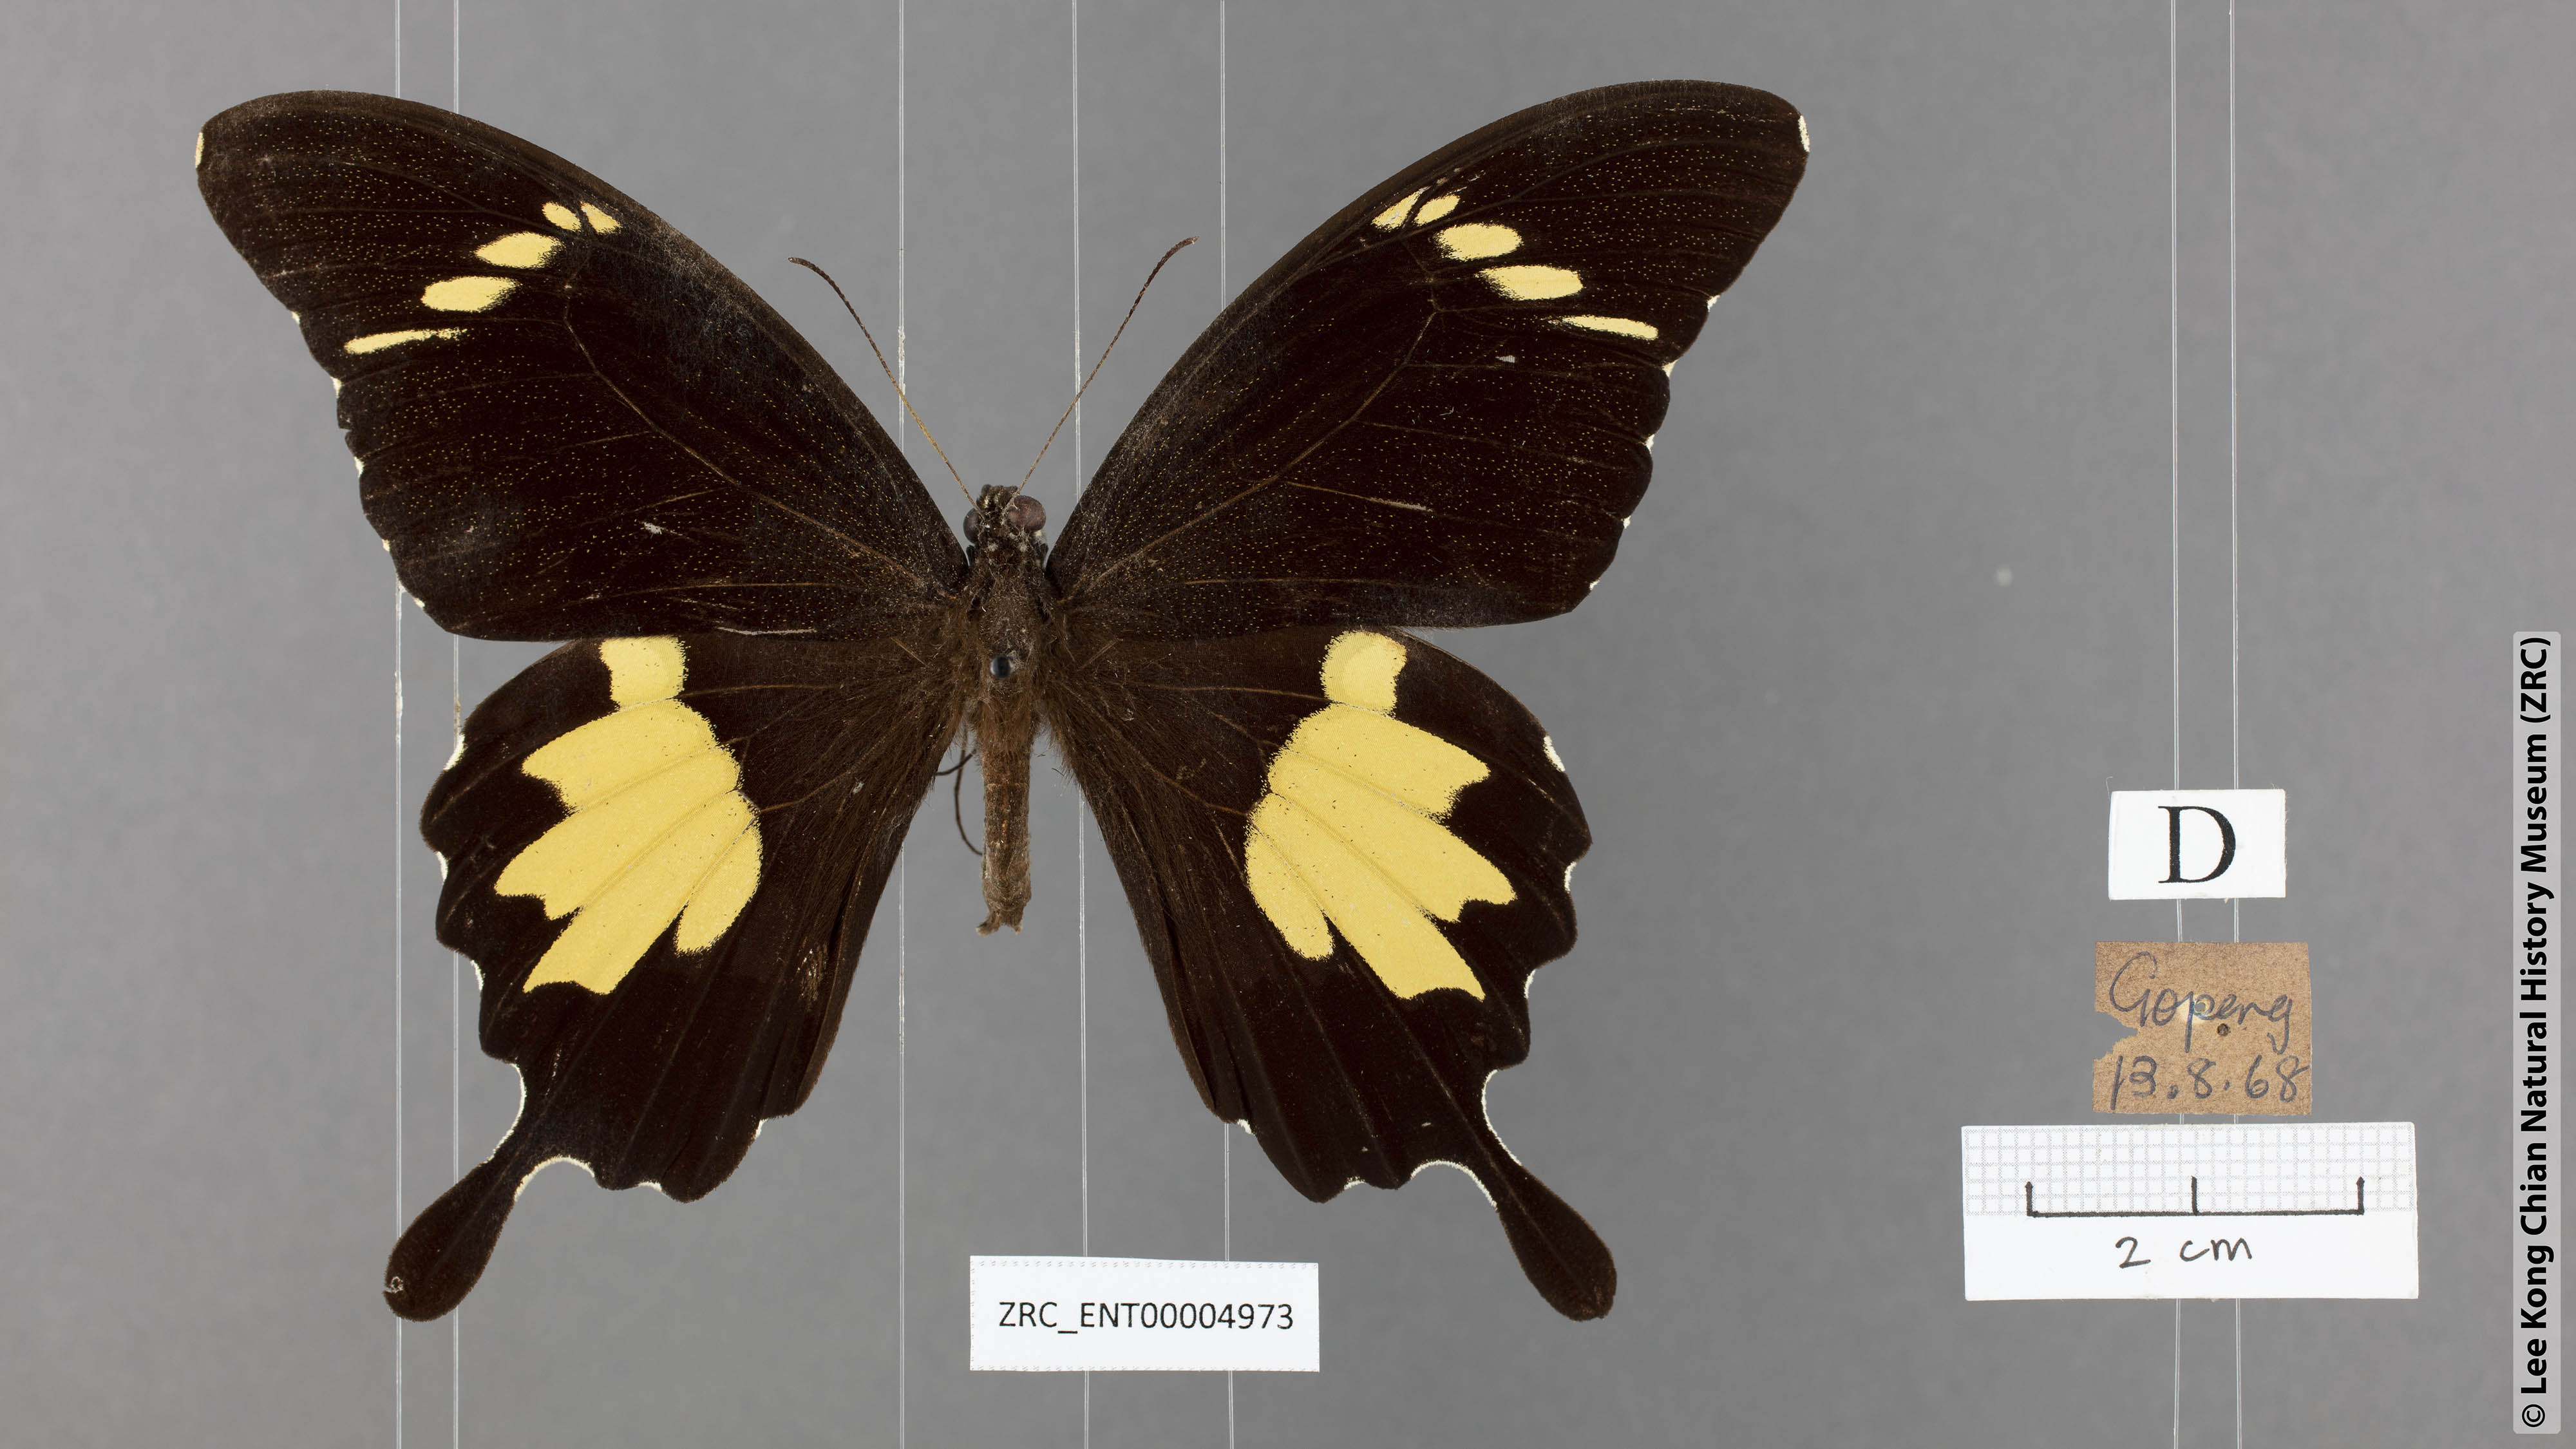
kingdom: Animalia
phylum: Arthropoda
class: Insecta
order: Lepidoptera
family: Papilionidae
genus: Papilio
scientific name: Papilio nephelus
